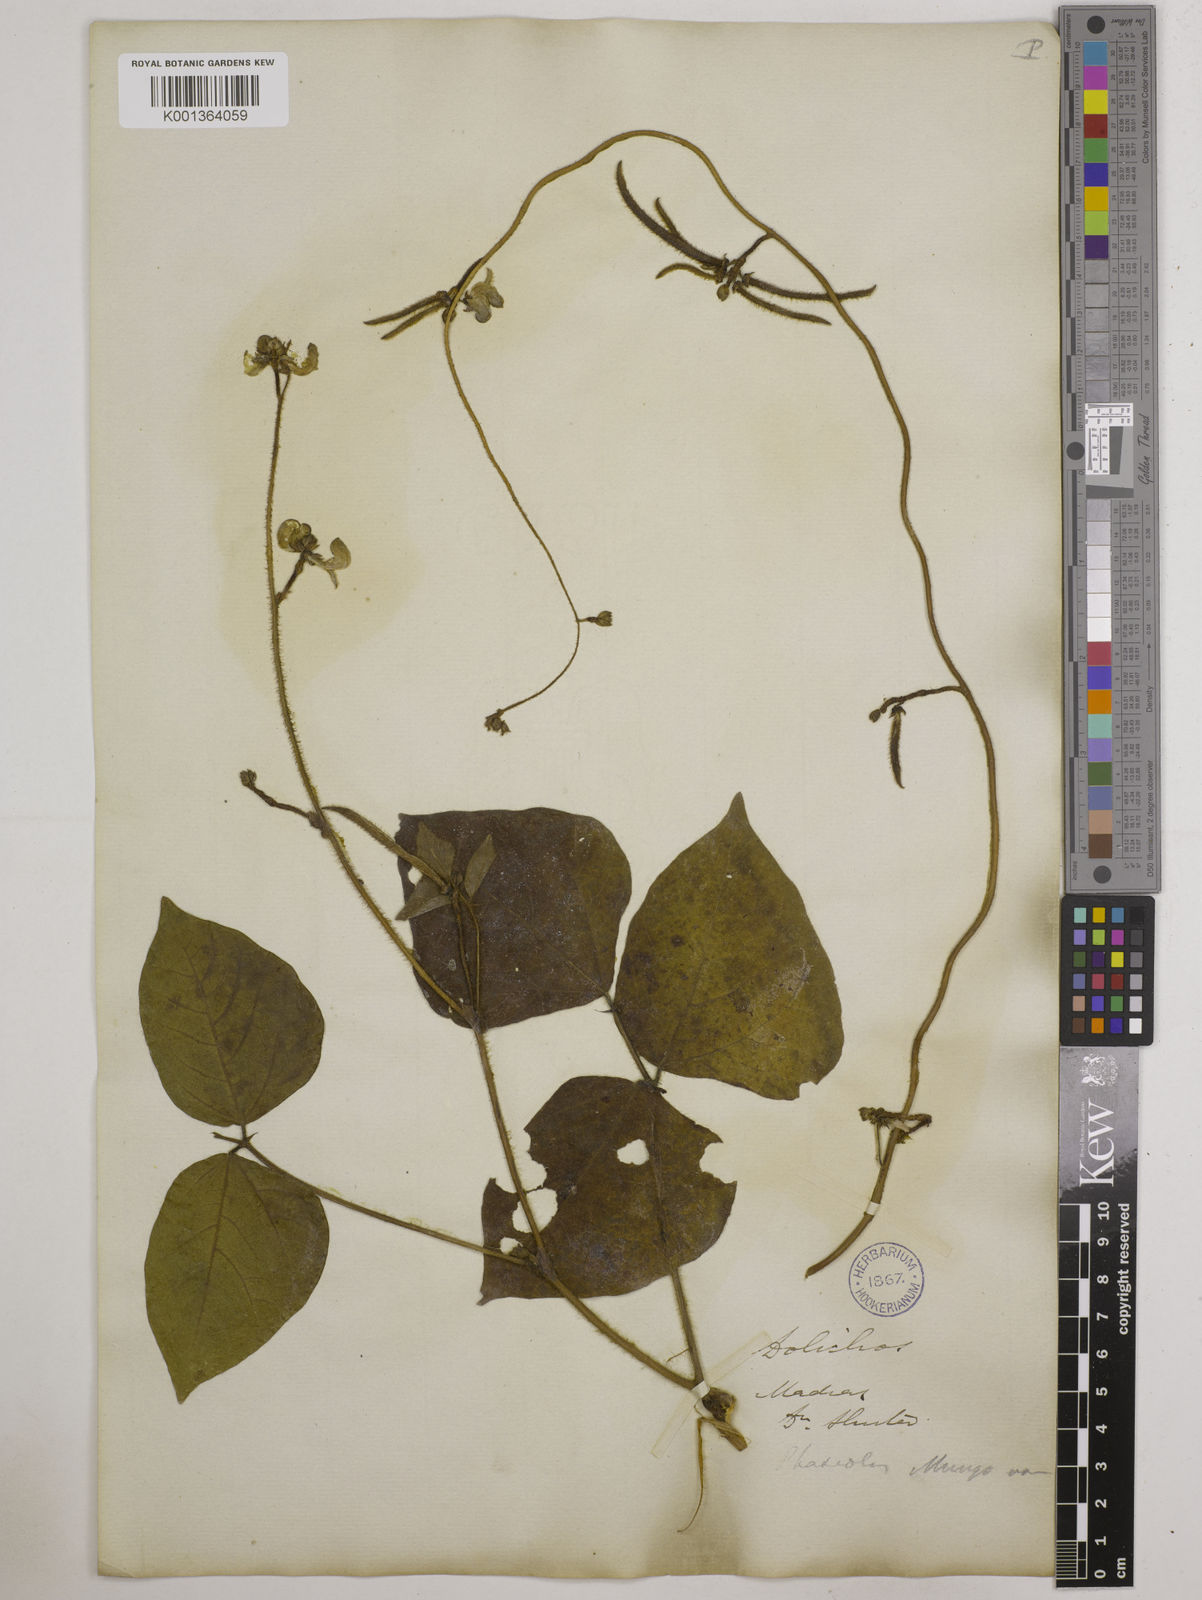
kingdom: Plantae
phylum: Tracheophyta
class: Magnoliopsida
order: Fabales
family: Fabaceae
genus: Vigna
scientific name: Vigna radiata
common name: Mung-bean
